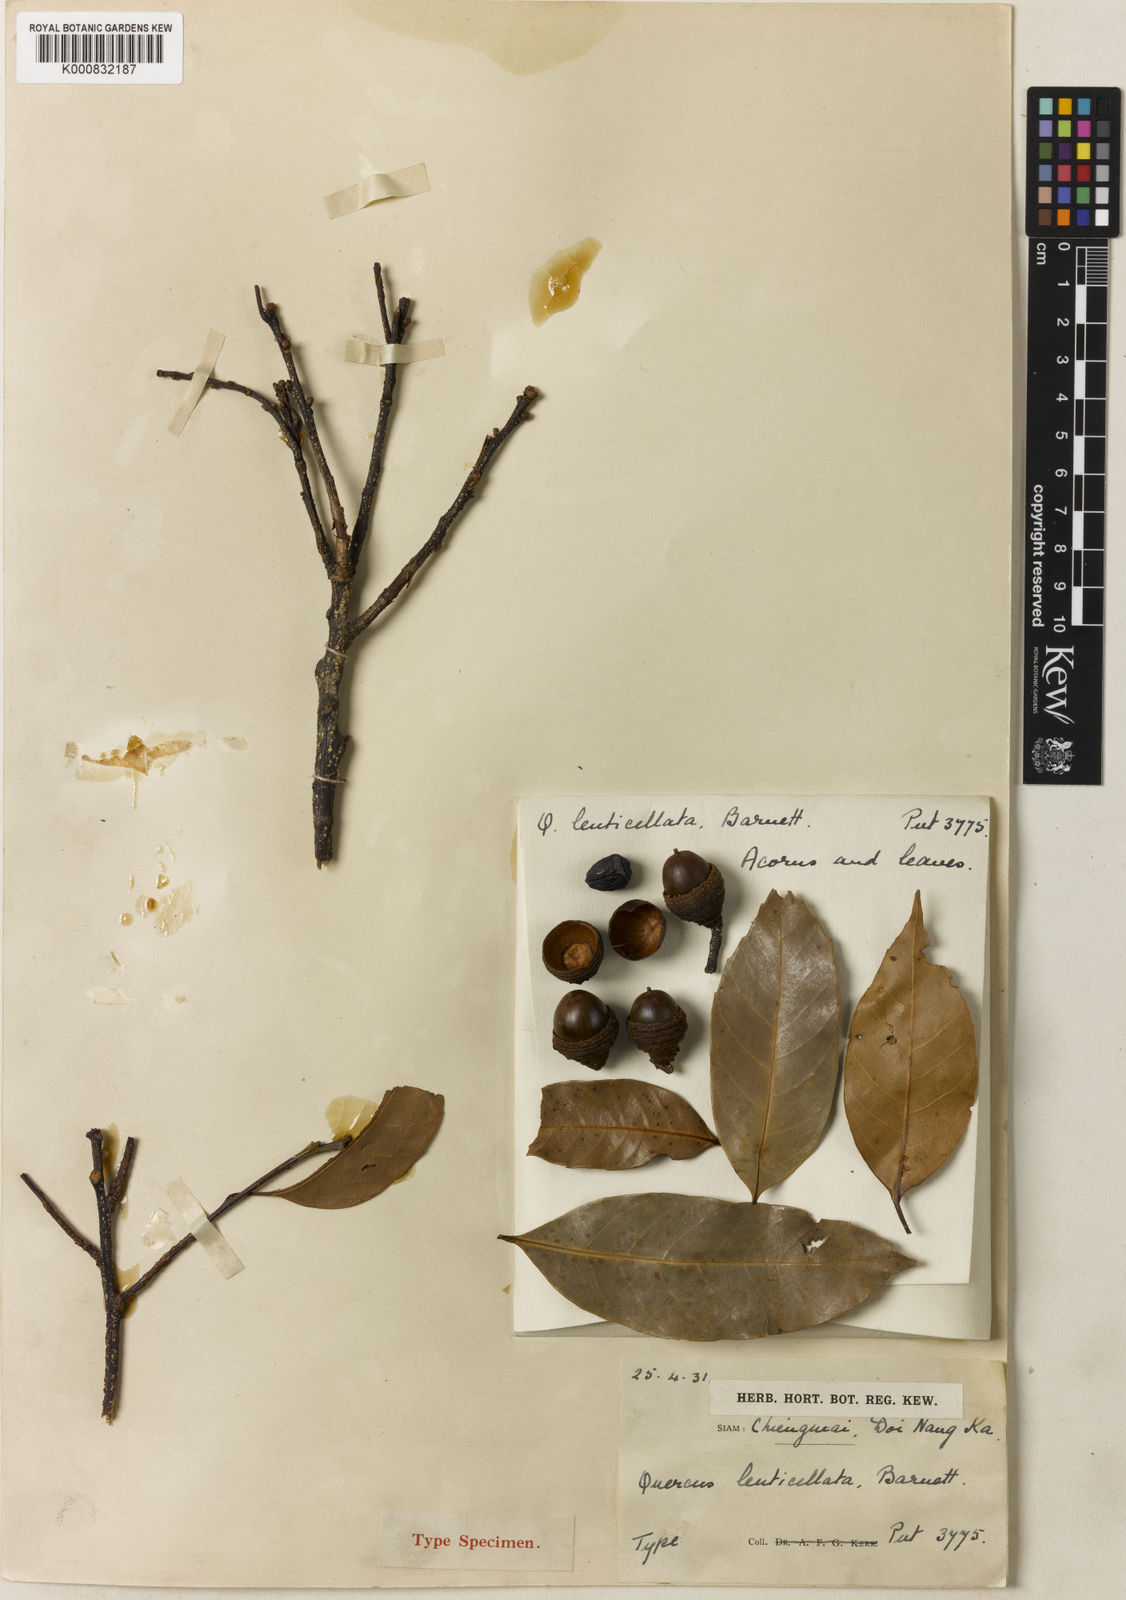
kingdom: Plantae
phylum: Tracheophyta
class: Magnoliopsida
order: Fagales
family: Fagaceae
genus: Quercus
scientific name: Quercus eumorpha
